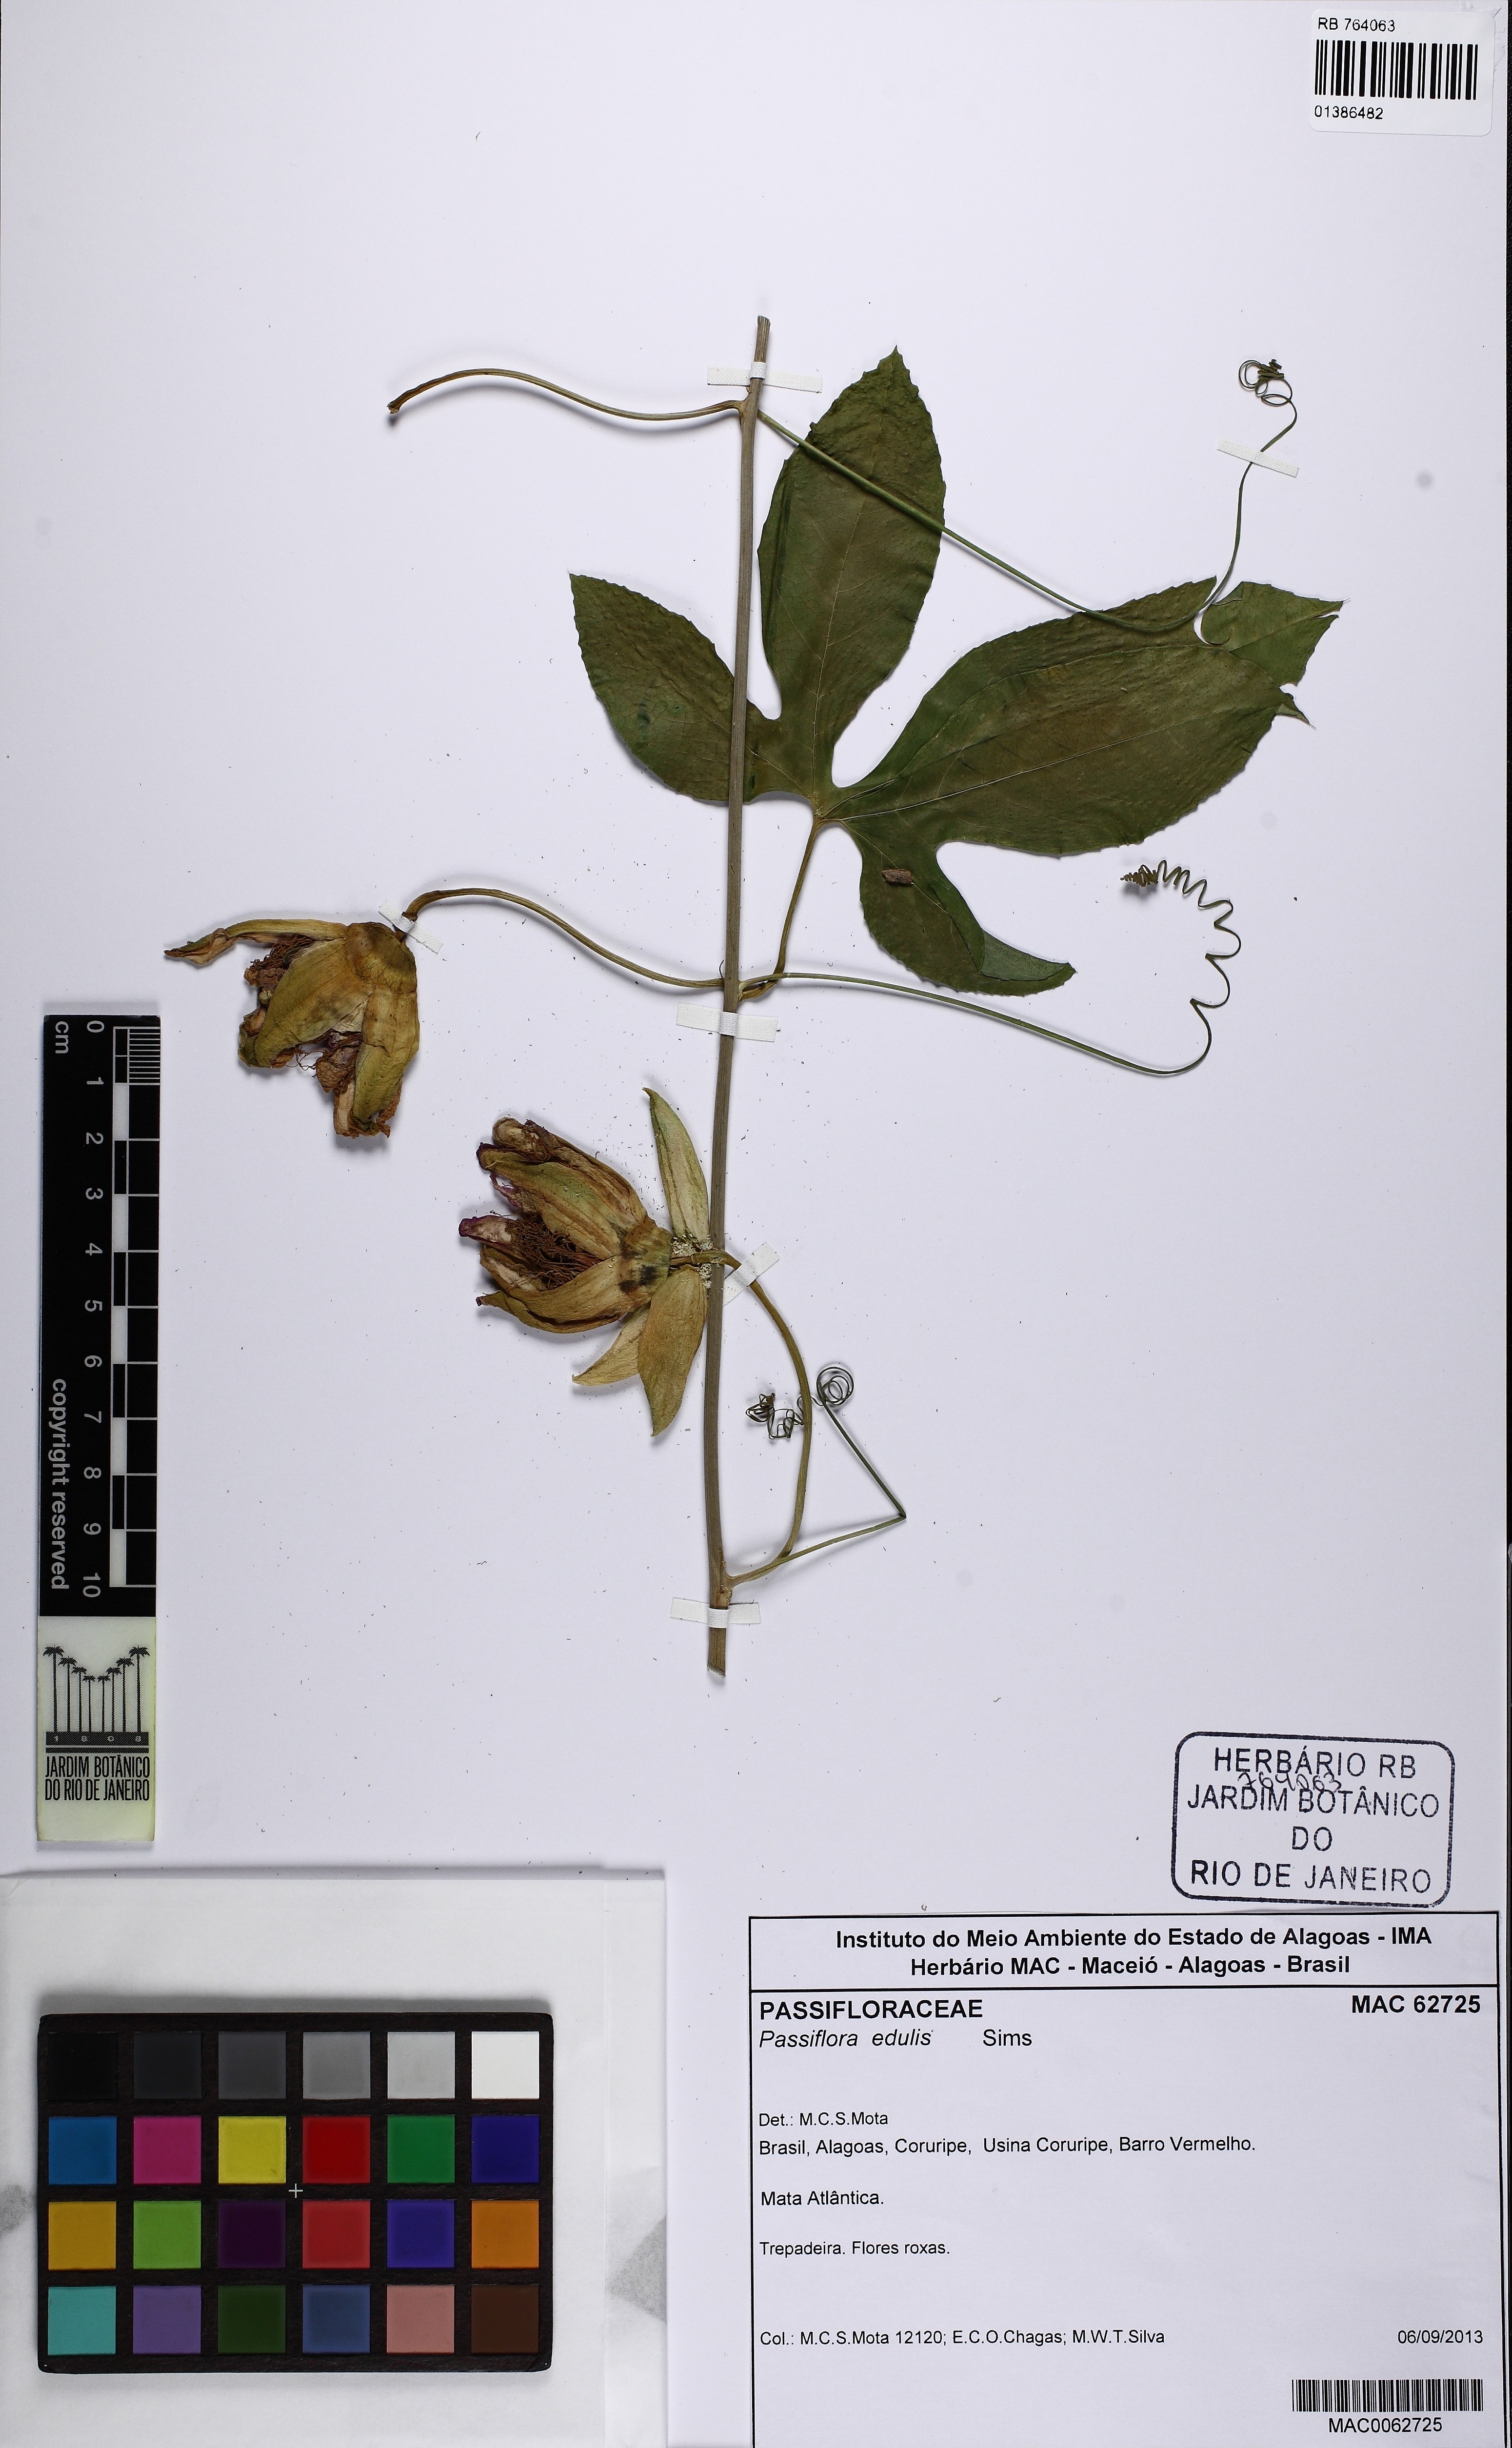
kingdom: Plantae
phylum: Tracheophyta
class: Magnoliopsida
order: Malpighiales
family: Passifloraceae
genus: Passiflora
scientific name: Passiflora edulis
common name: Purple granadilla
